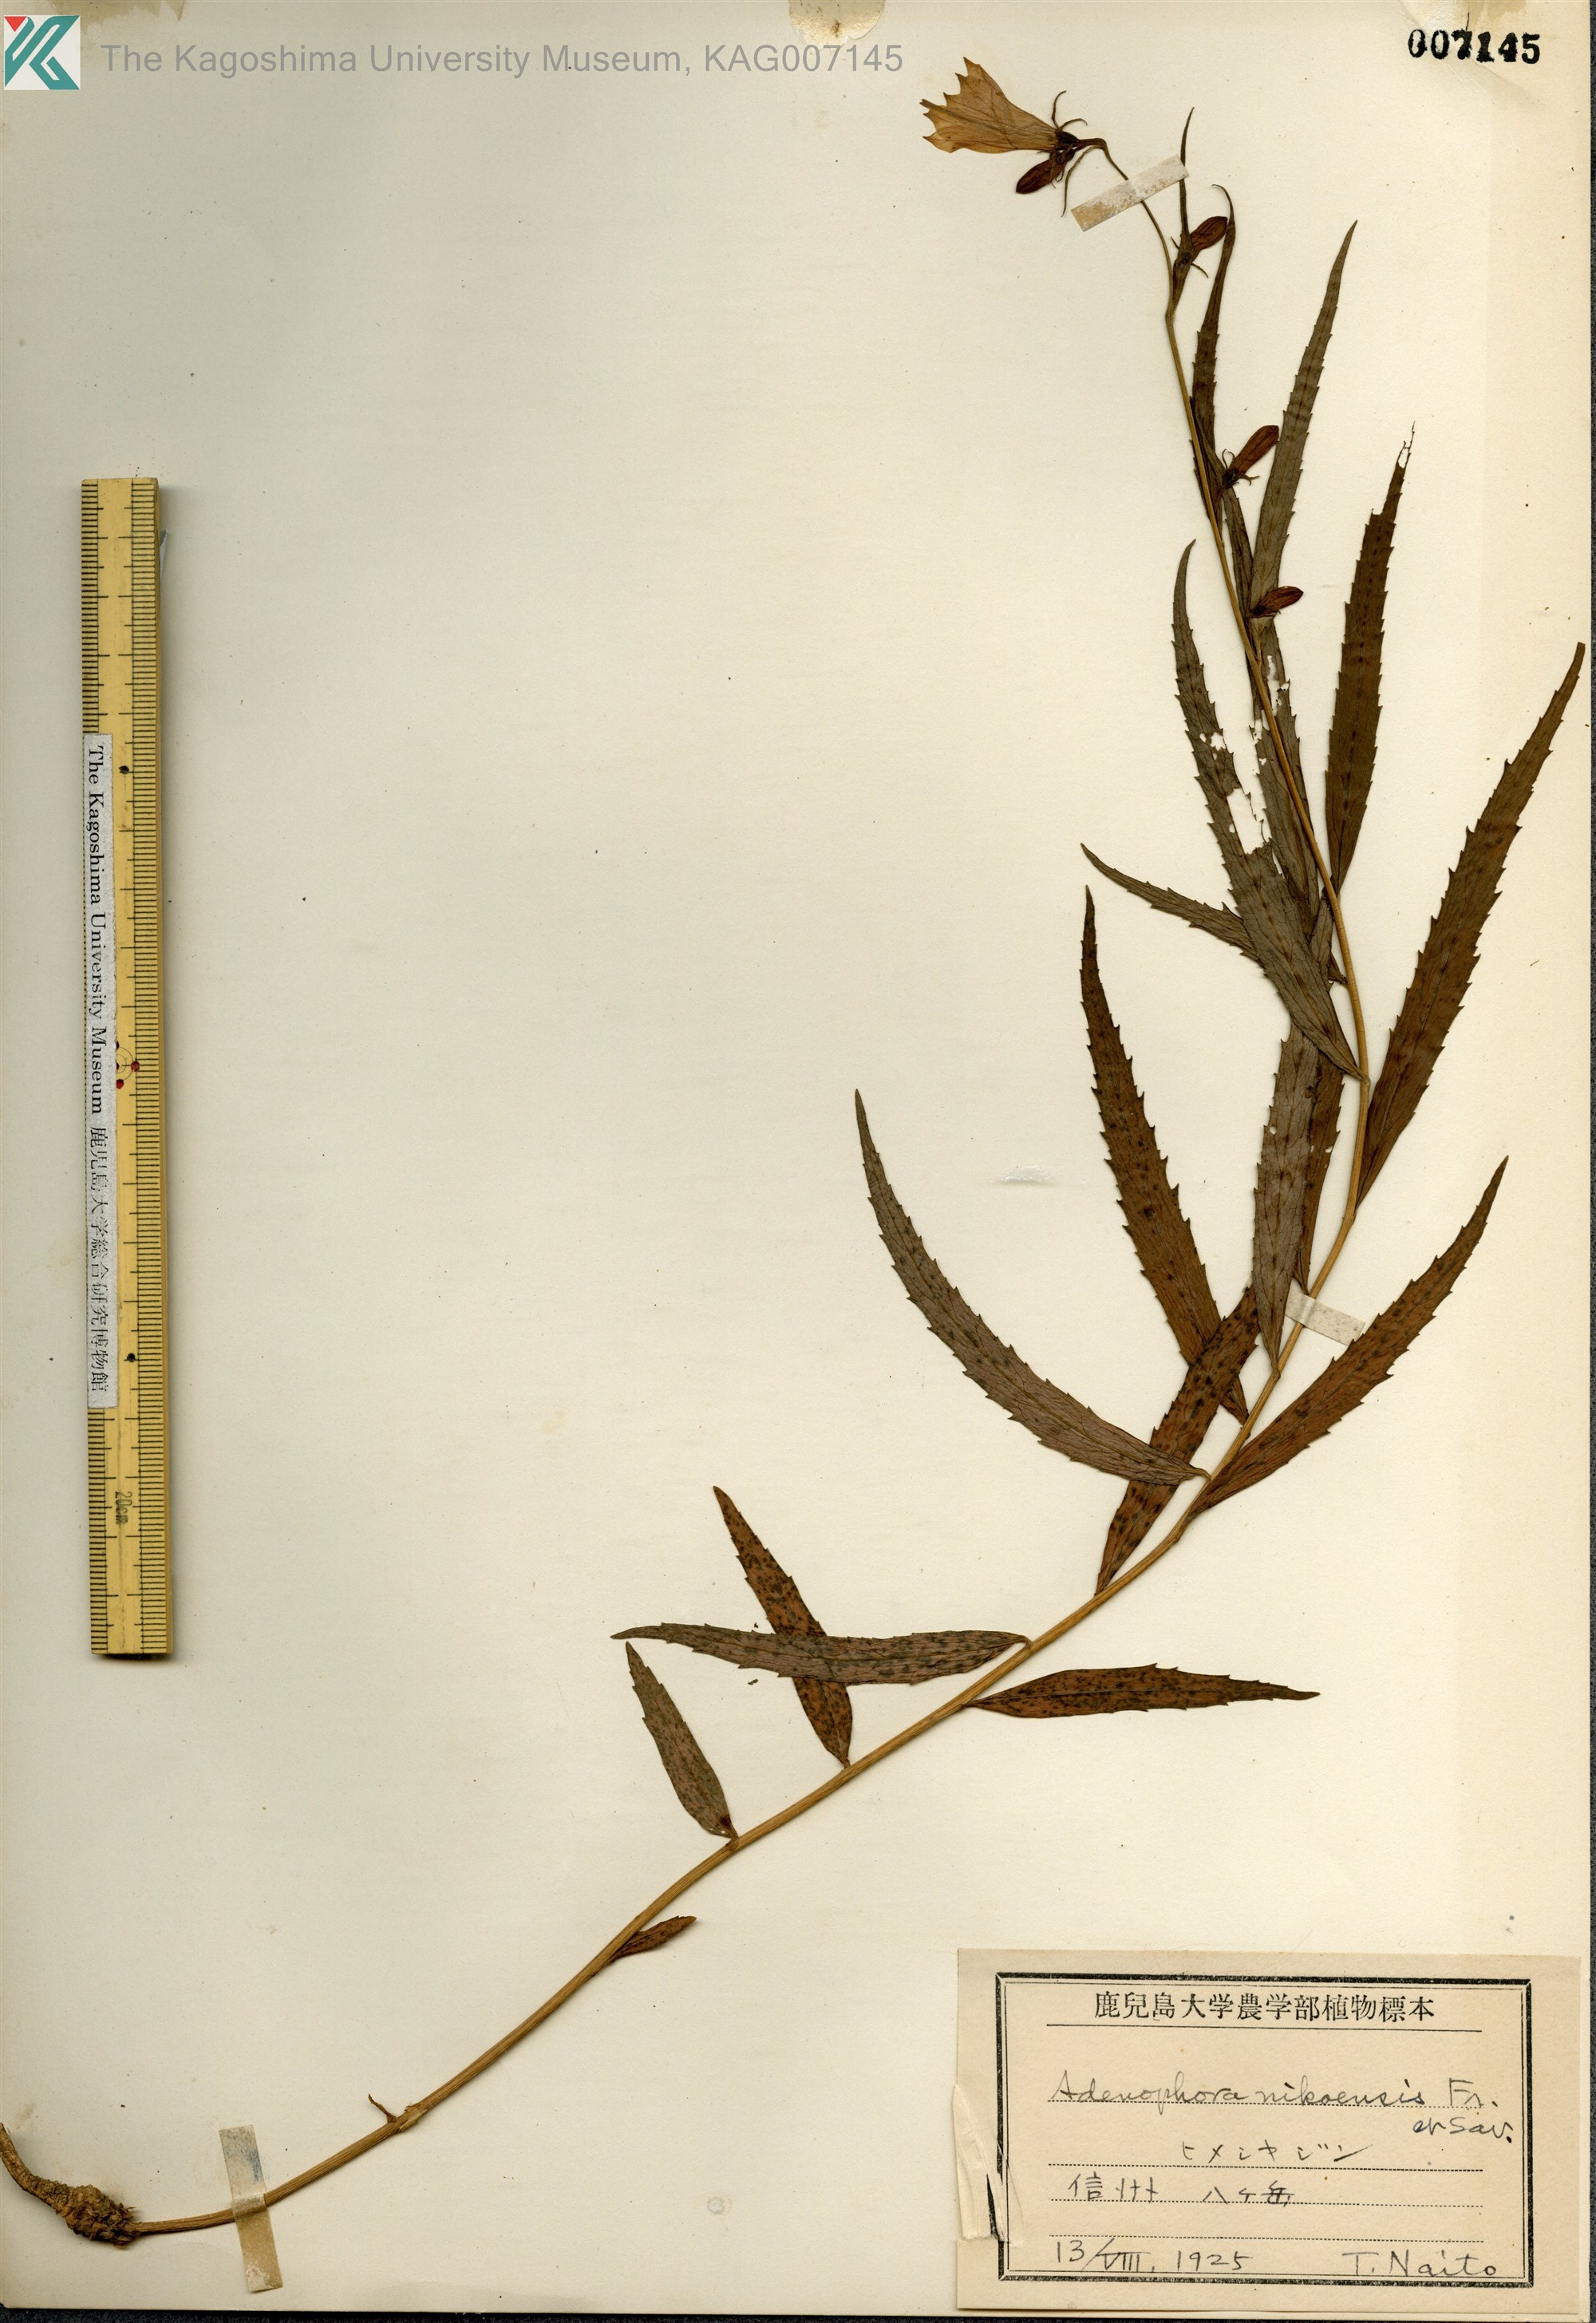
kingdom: Plantae
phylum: Tracheophyta
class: Magnoliopsida
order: Asterales
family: Campanulaceae
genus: Adenophora
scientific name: Adenophora nikoensis
